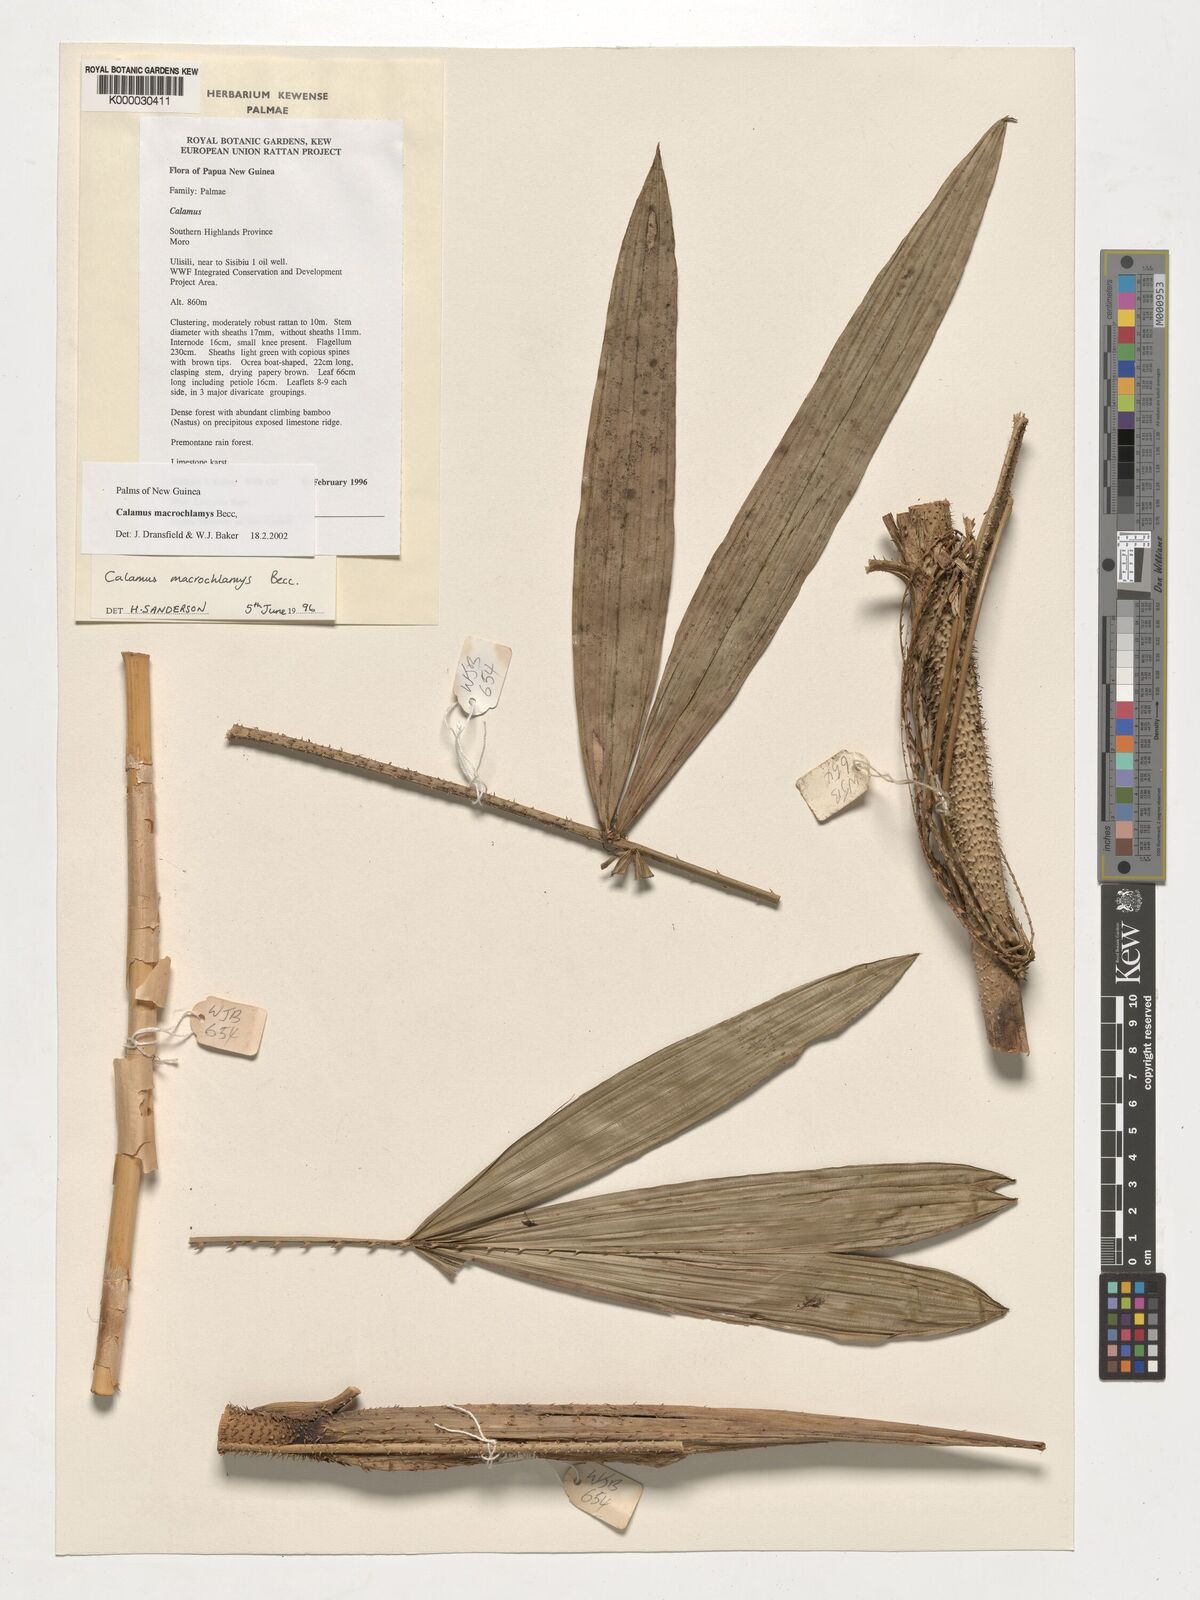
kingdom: Plantae
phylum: Tracheophyta
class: Liliopsida
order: Arecales
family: Arecaceae
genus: Calamus
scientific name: Calamus macrochlamys
